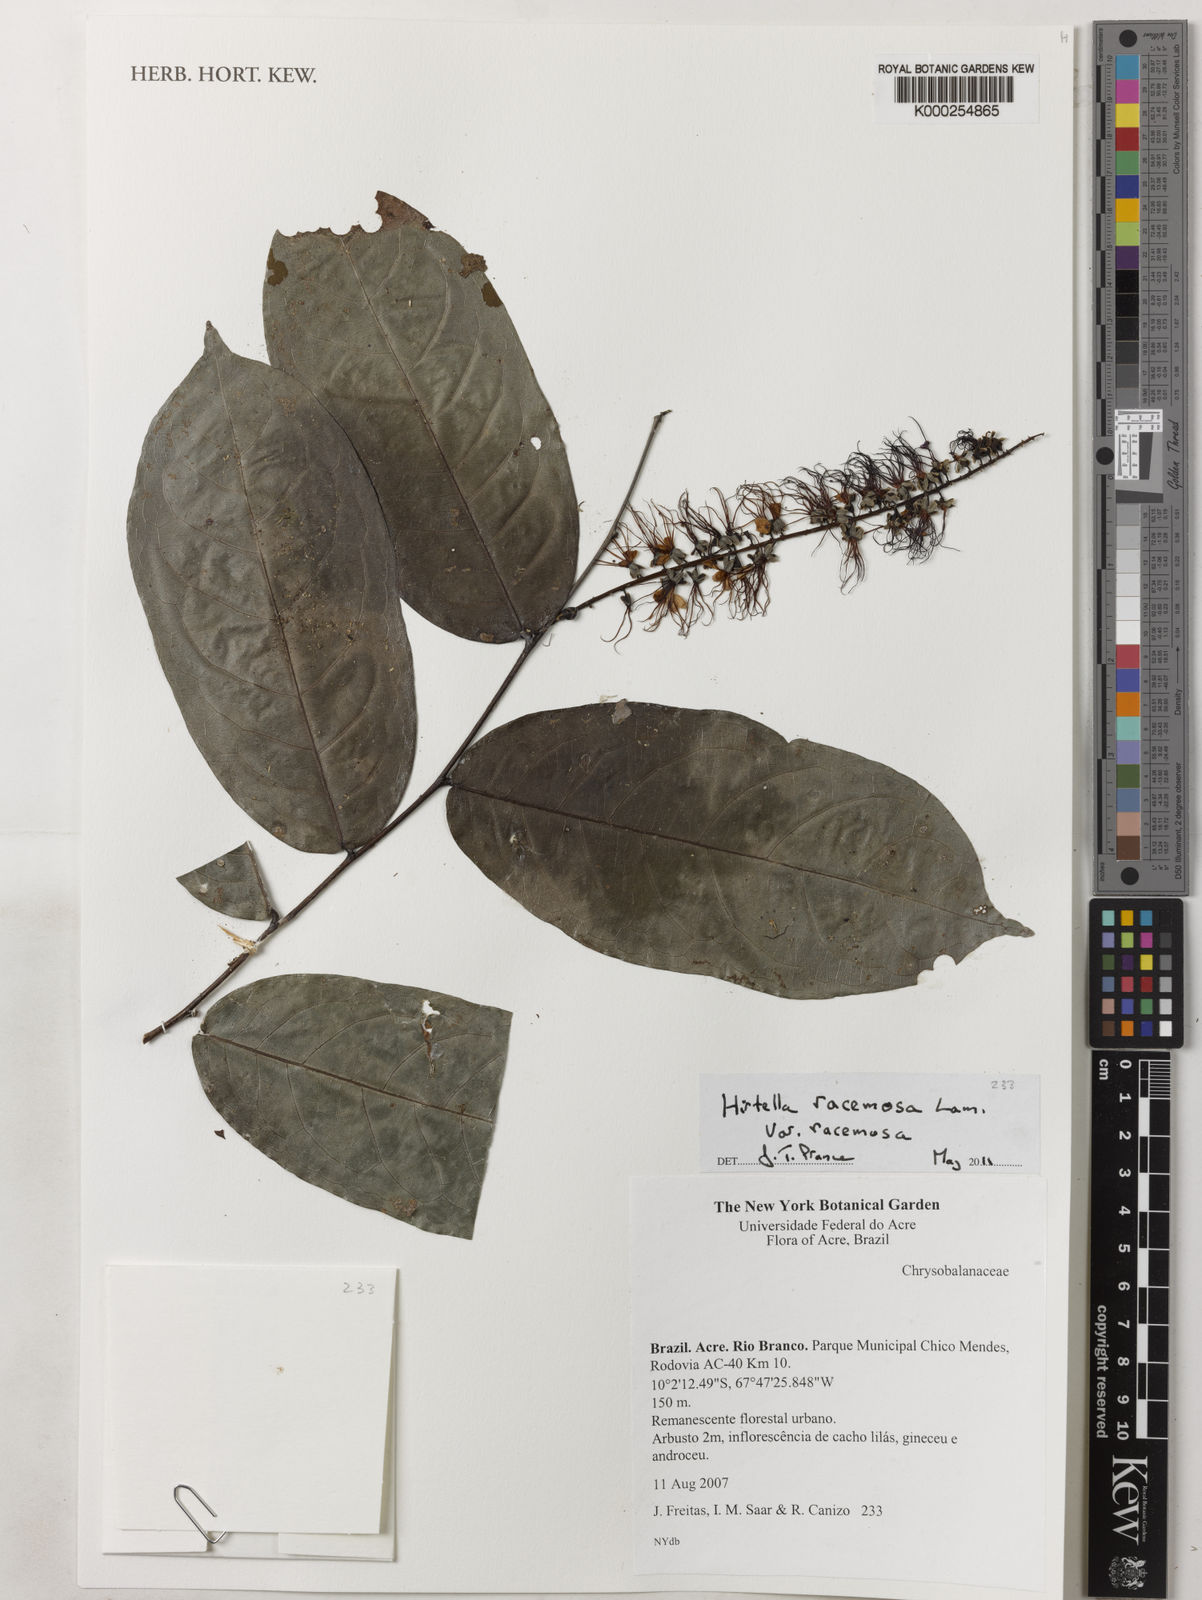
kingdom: Plantae
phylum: Tracheophyta
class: Magnoliopsida
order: Malpighiales
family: Chrysobalanaceae
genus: Hirtella
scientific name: Hirtella racemosa
